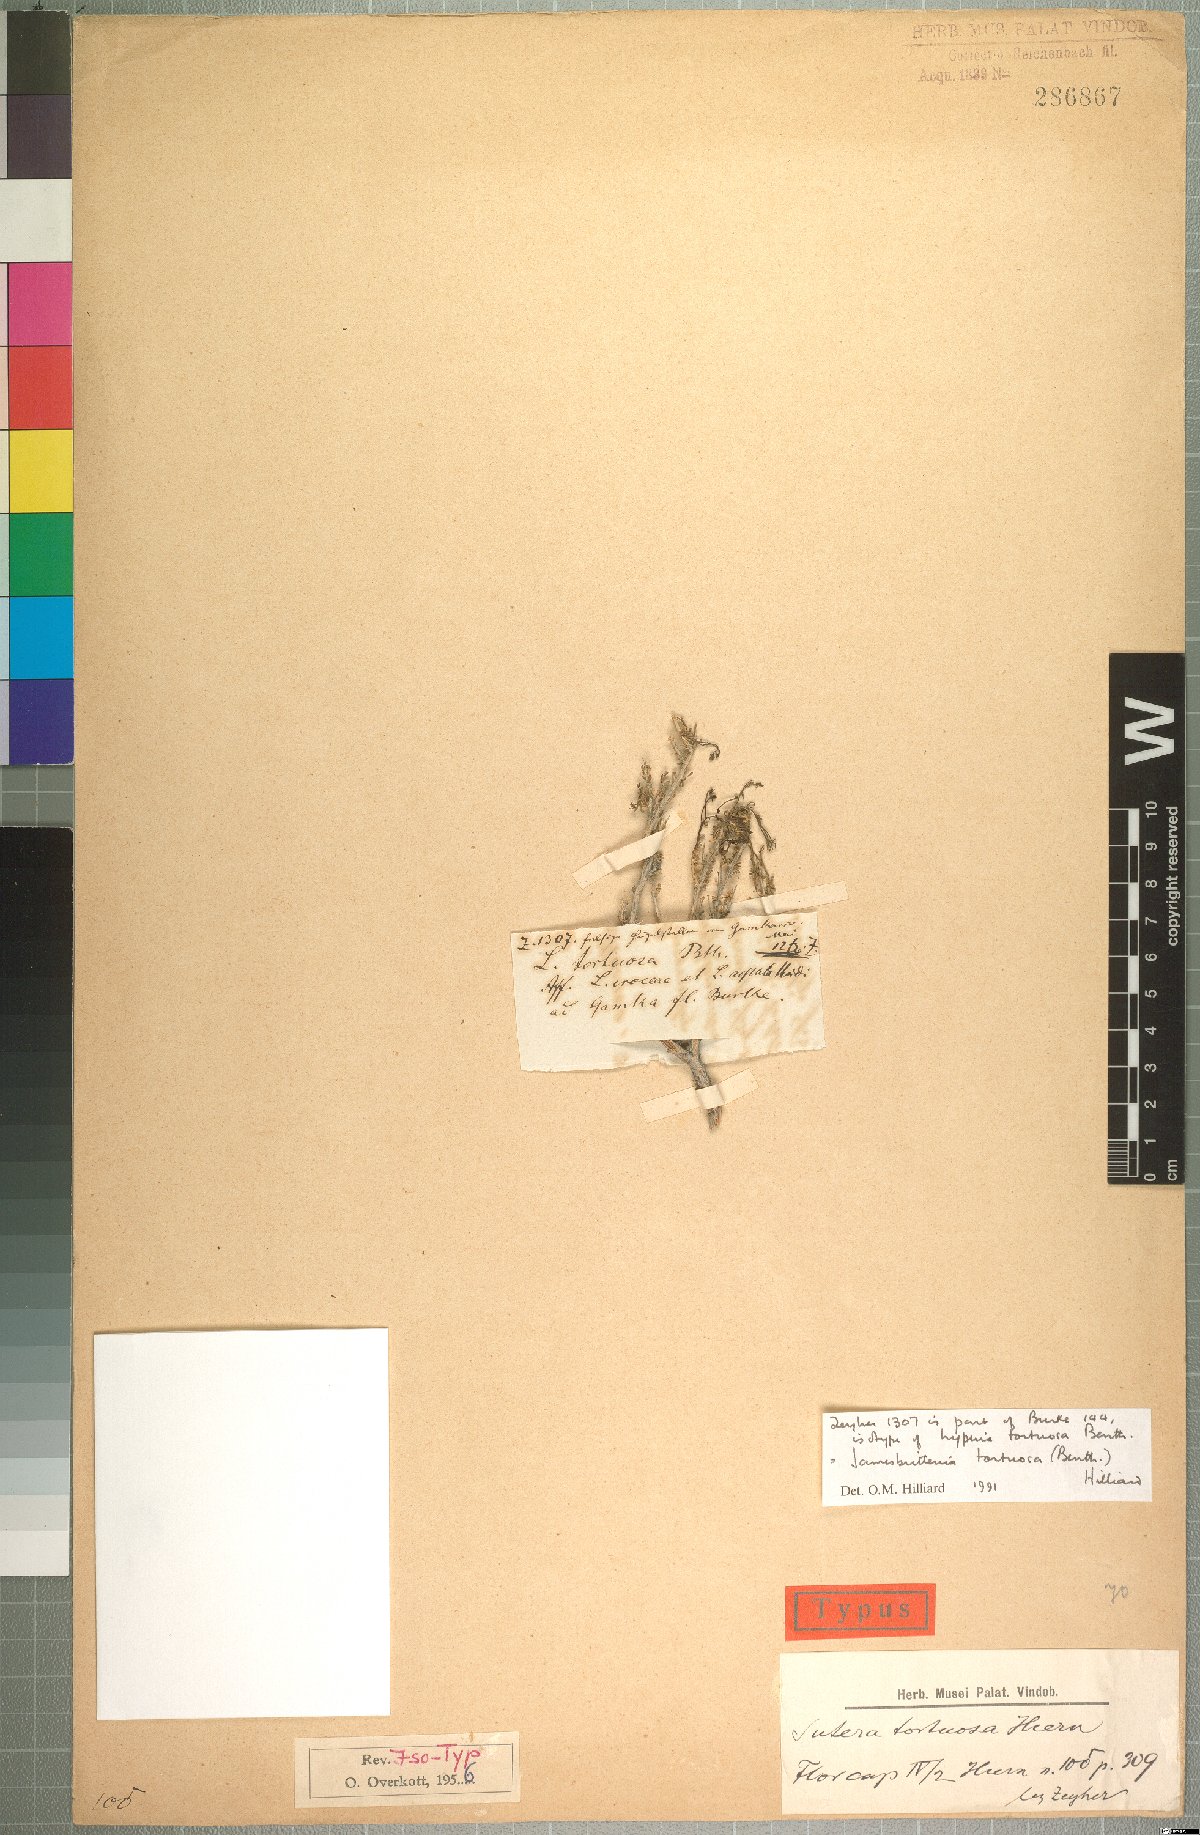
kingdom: Plantae
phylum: Tracheophyta
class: Magnoliopsida
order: Lamiales
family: Scrophulariaceae
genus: Jamesbrittenia
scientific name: Jamesbrittenia tortuosa
